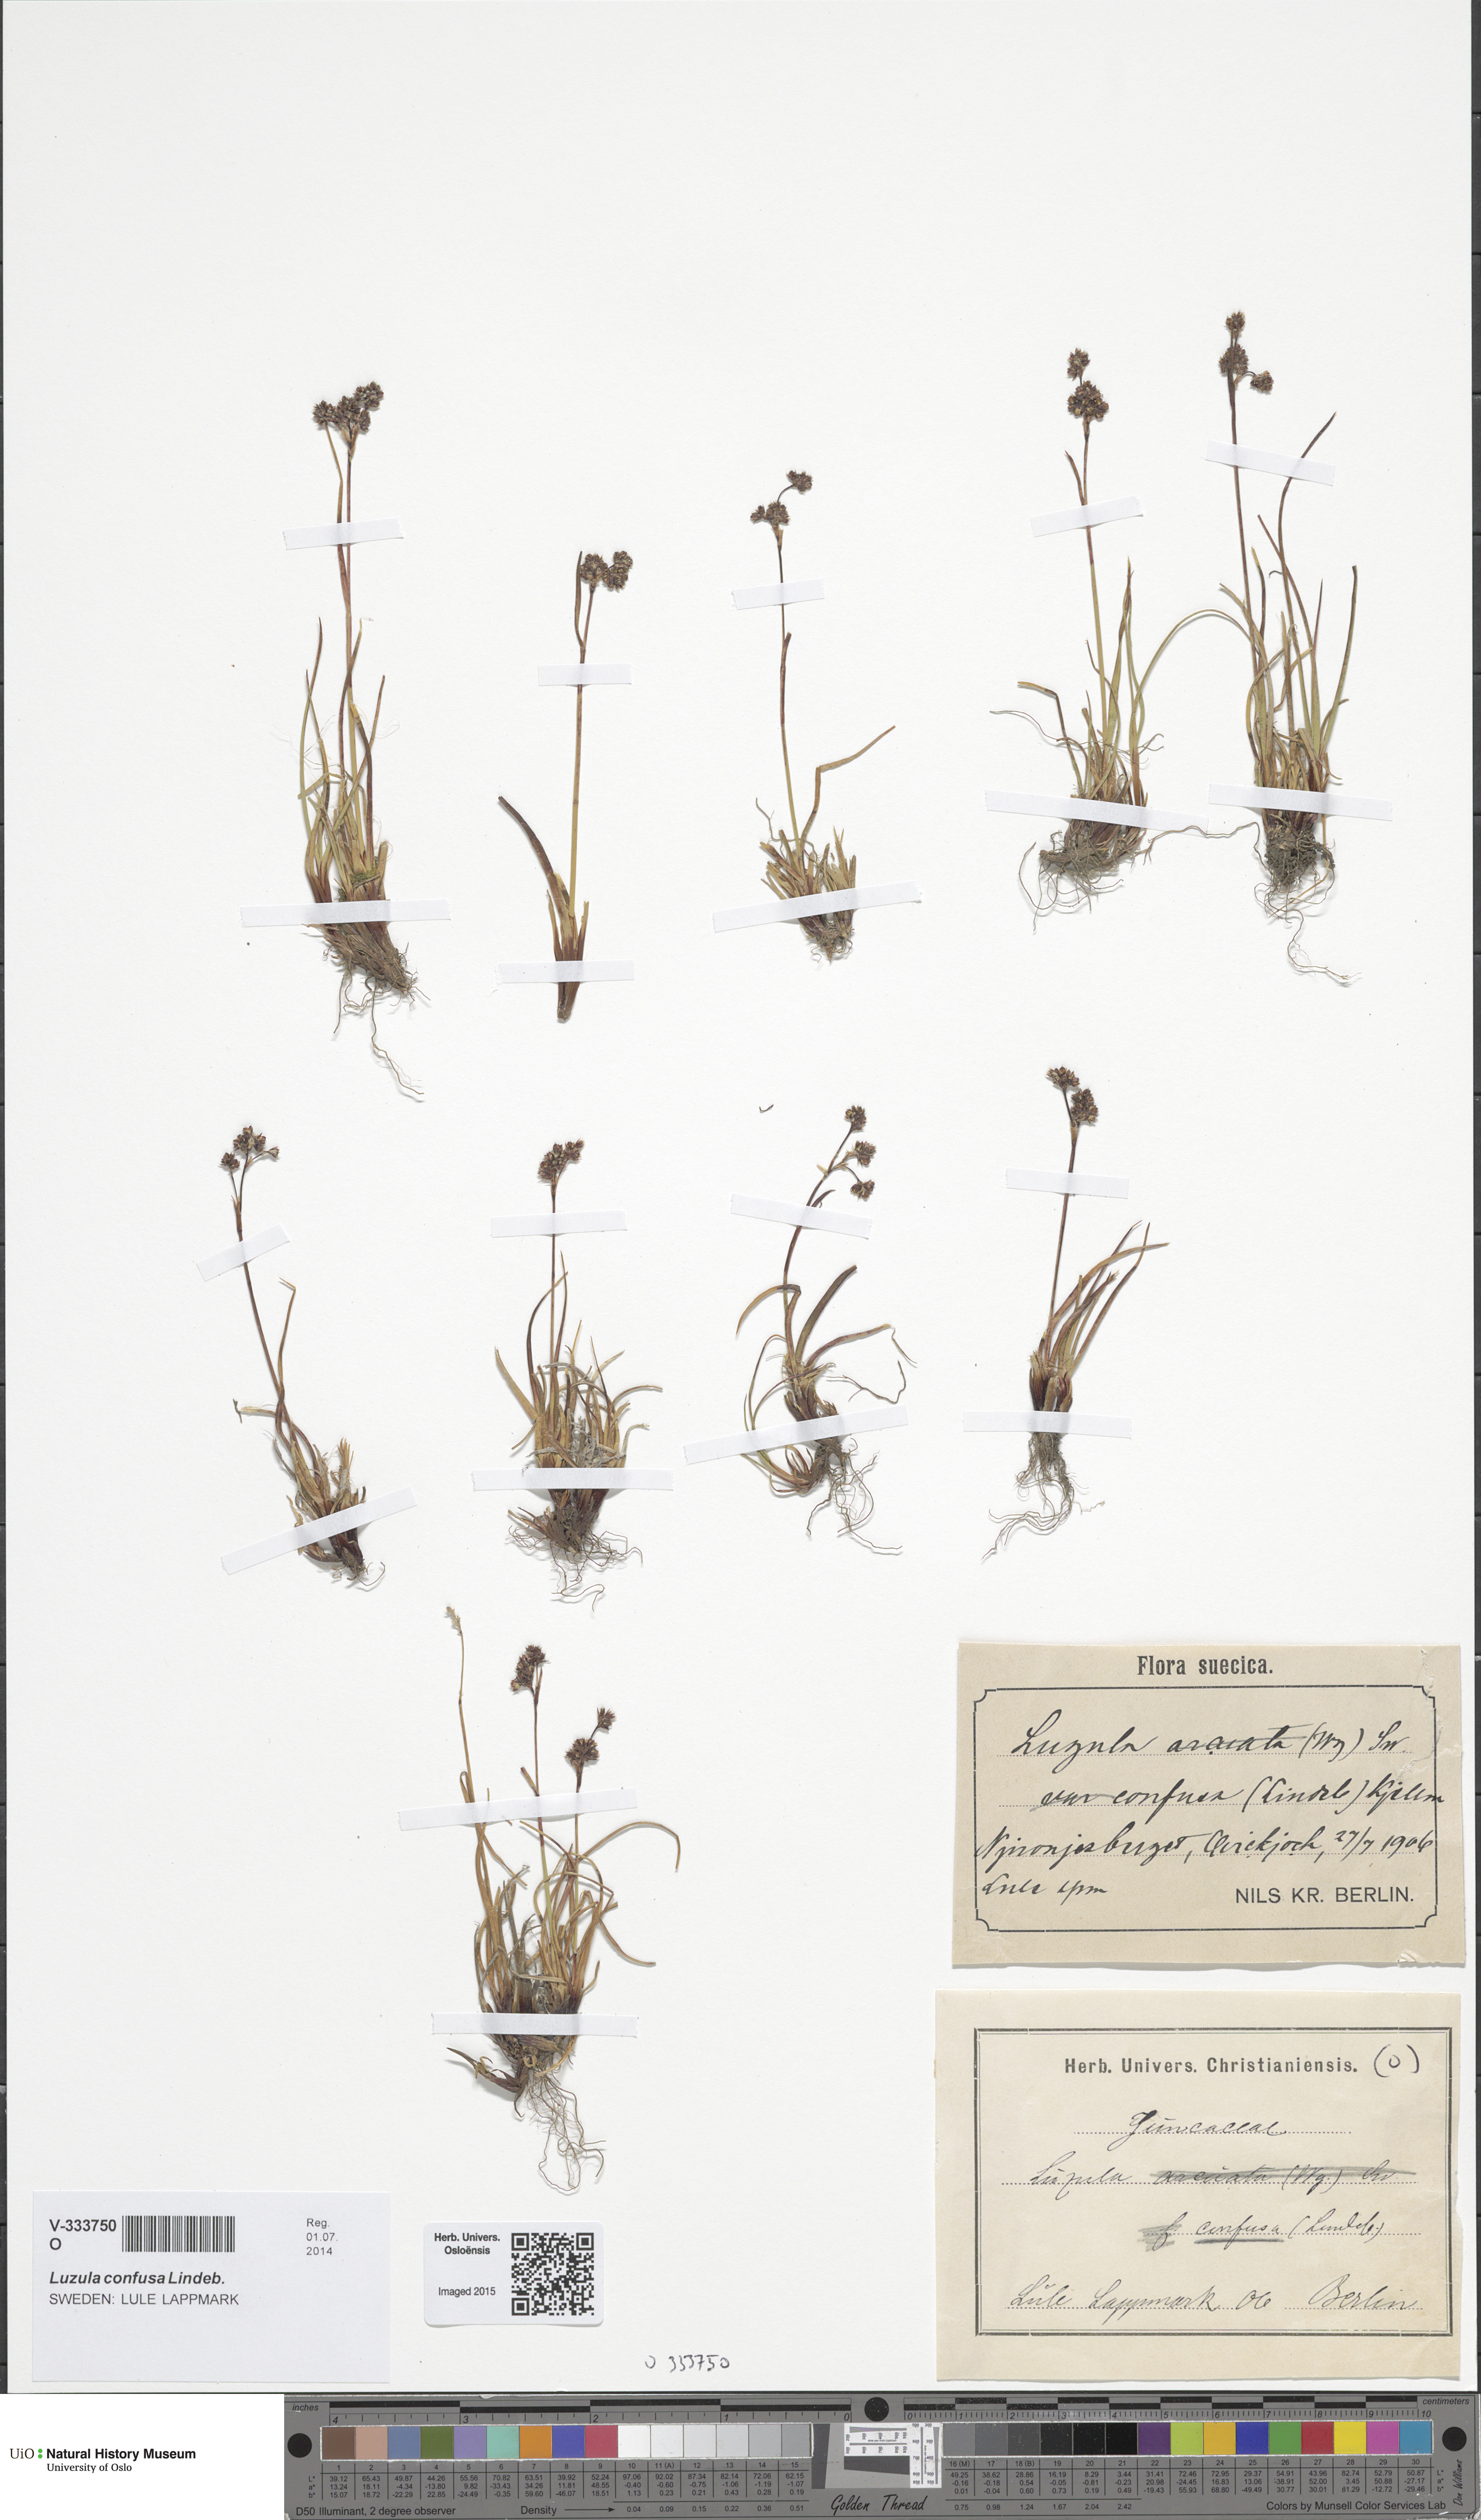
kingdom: Plantae
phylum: Tracheophyta
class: Liliopsida
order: Poales
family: Juncaceae
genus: Luzula
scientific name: Luzula arcuata
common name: Curved wood-rush
